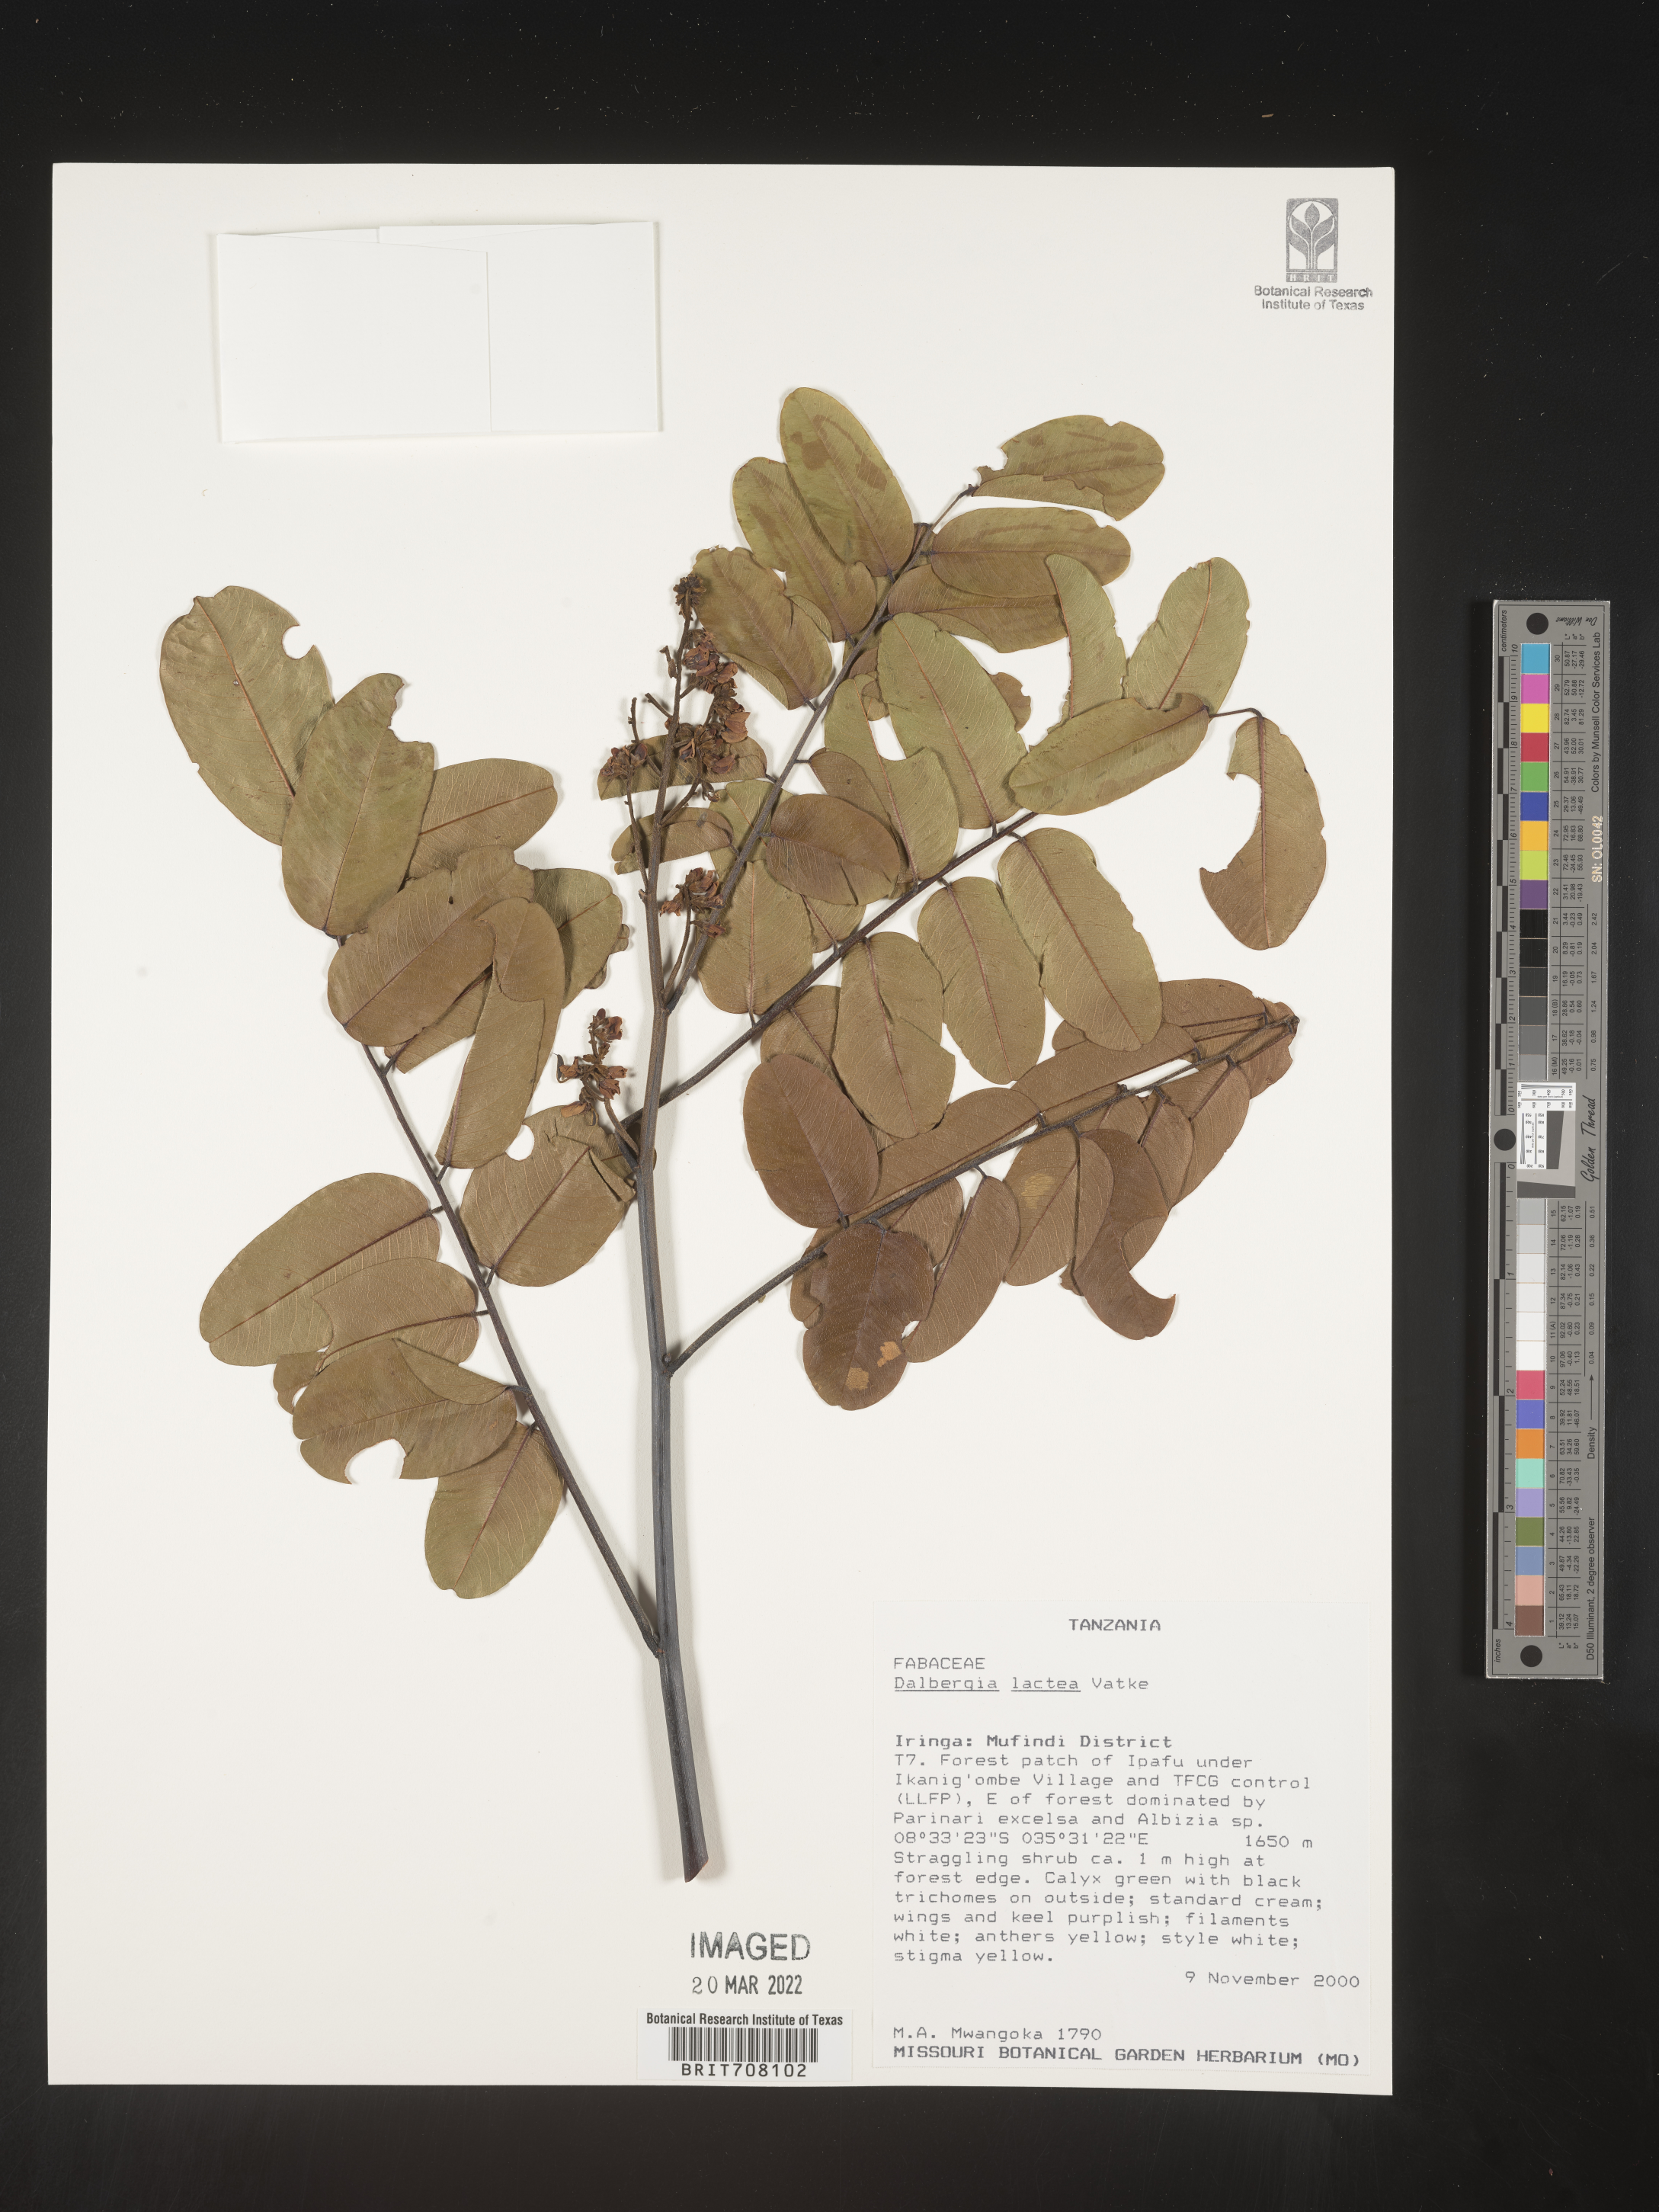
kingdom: Plantae
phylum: Tracheophyta
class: Magnoliopsida
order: Fabales
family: Fabaceae
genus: Dalbergia
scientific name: Dalbergia
